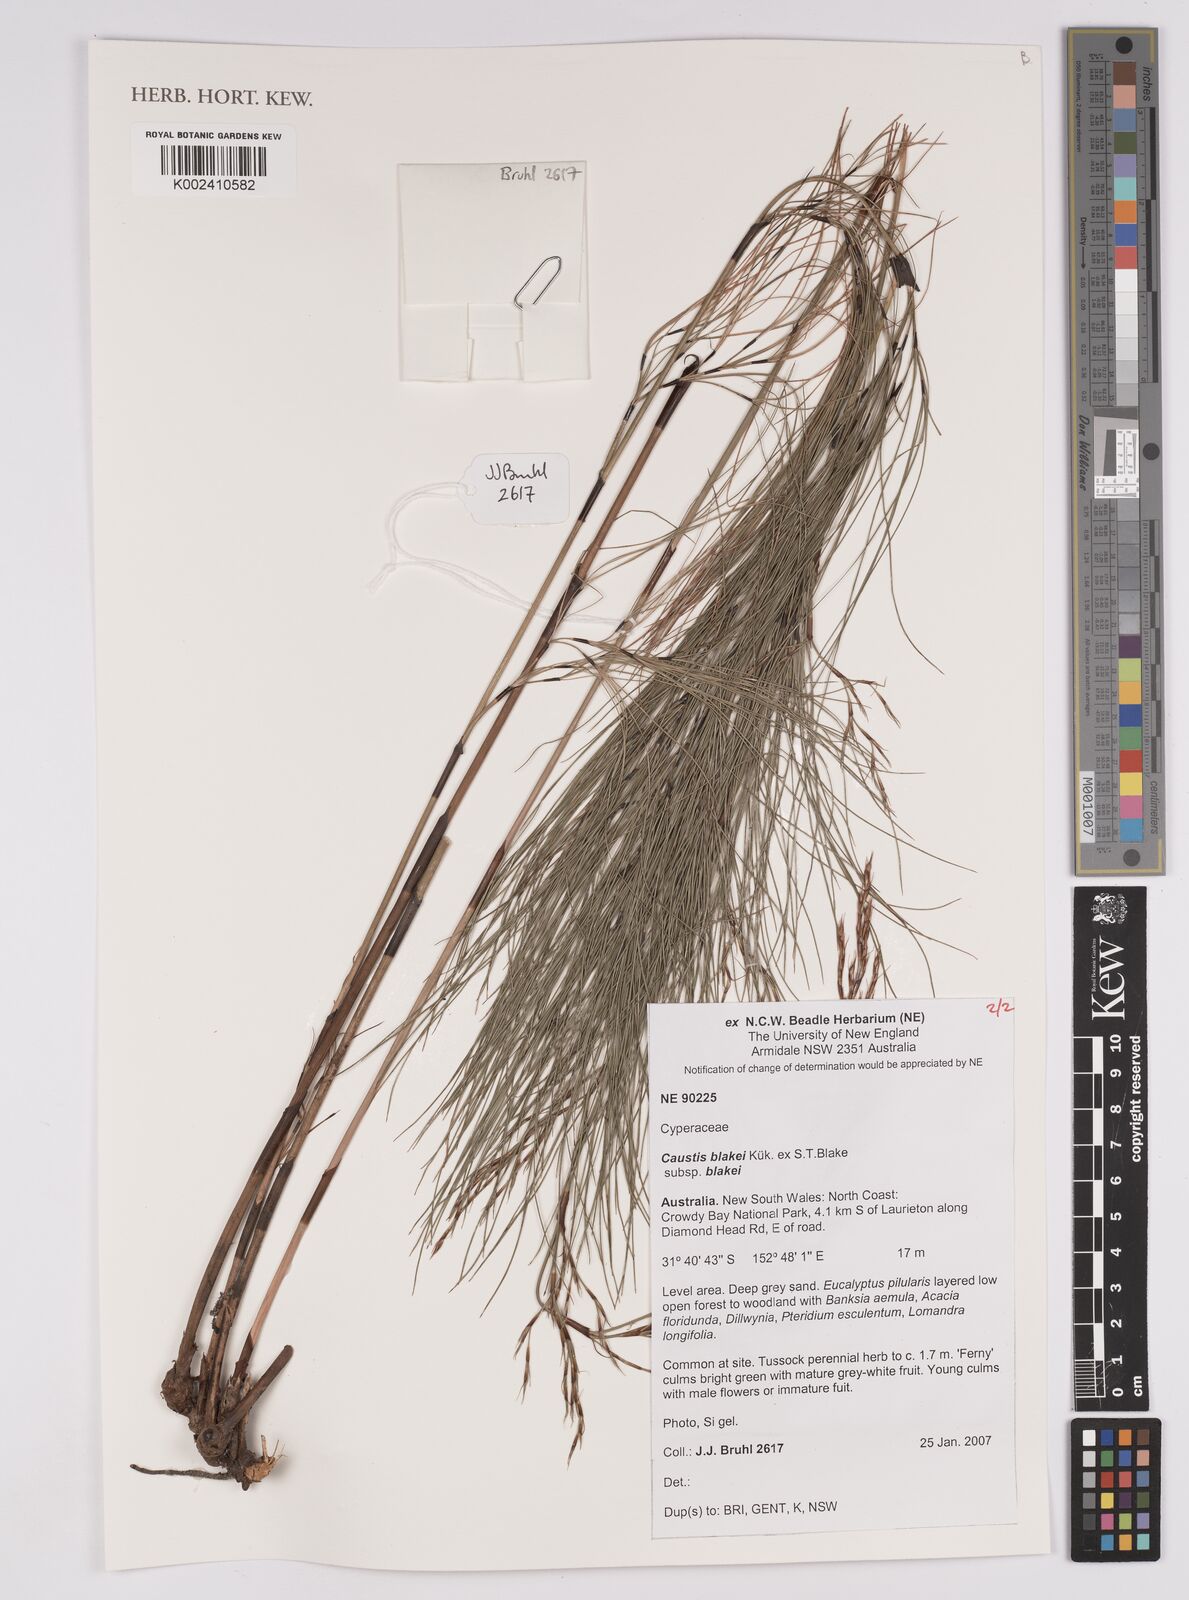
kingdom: Plantae
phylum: Tracheophyta
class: Liliopsida
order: Poales
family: Cyperaceae
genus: Caustis
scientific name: Caustis blakei
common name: Foxtail-fern
